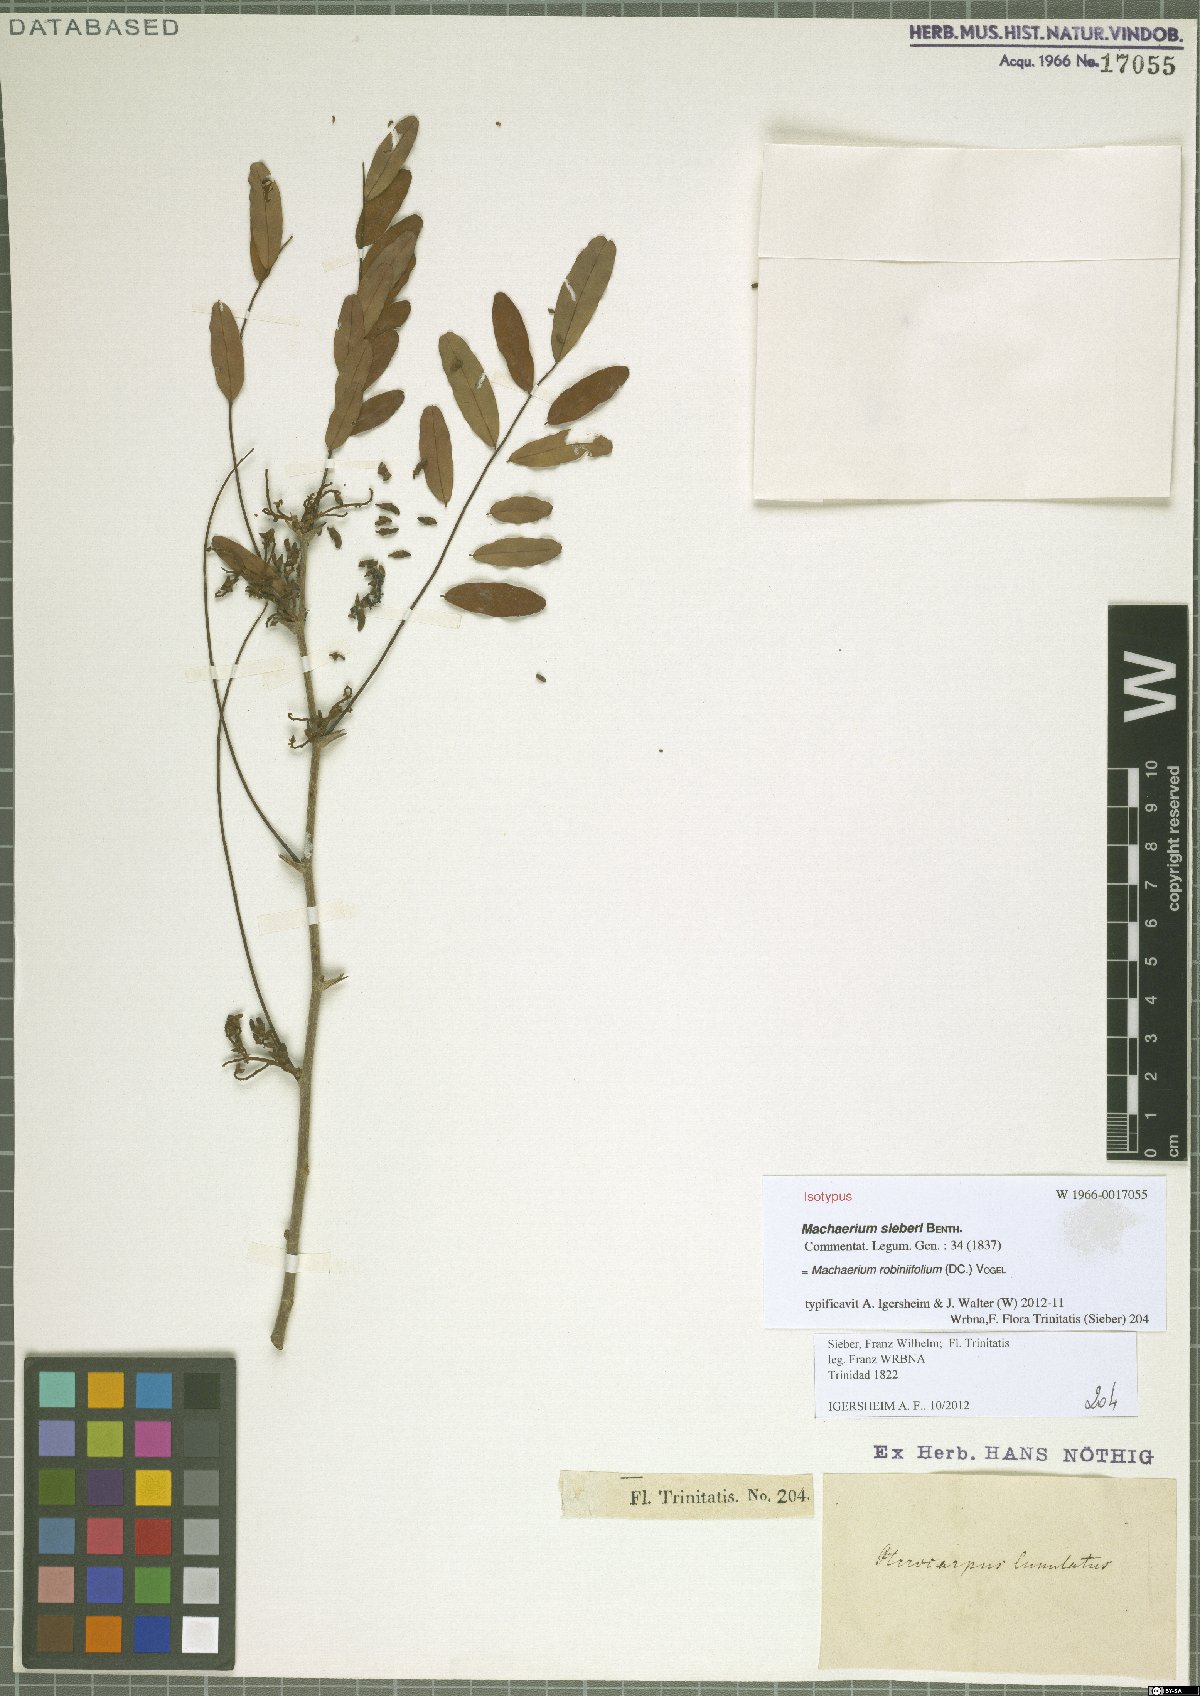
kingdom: Plantae
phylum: Tracheophyta
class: Magnoliopsida
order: Fabales
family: Fabaceae
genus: Machaerium
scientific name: Machaerium robiniifolium
